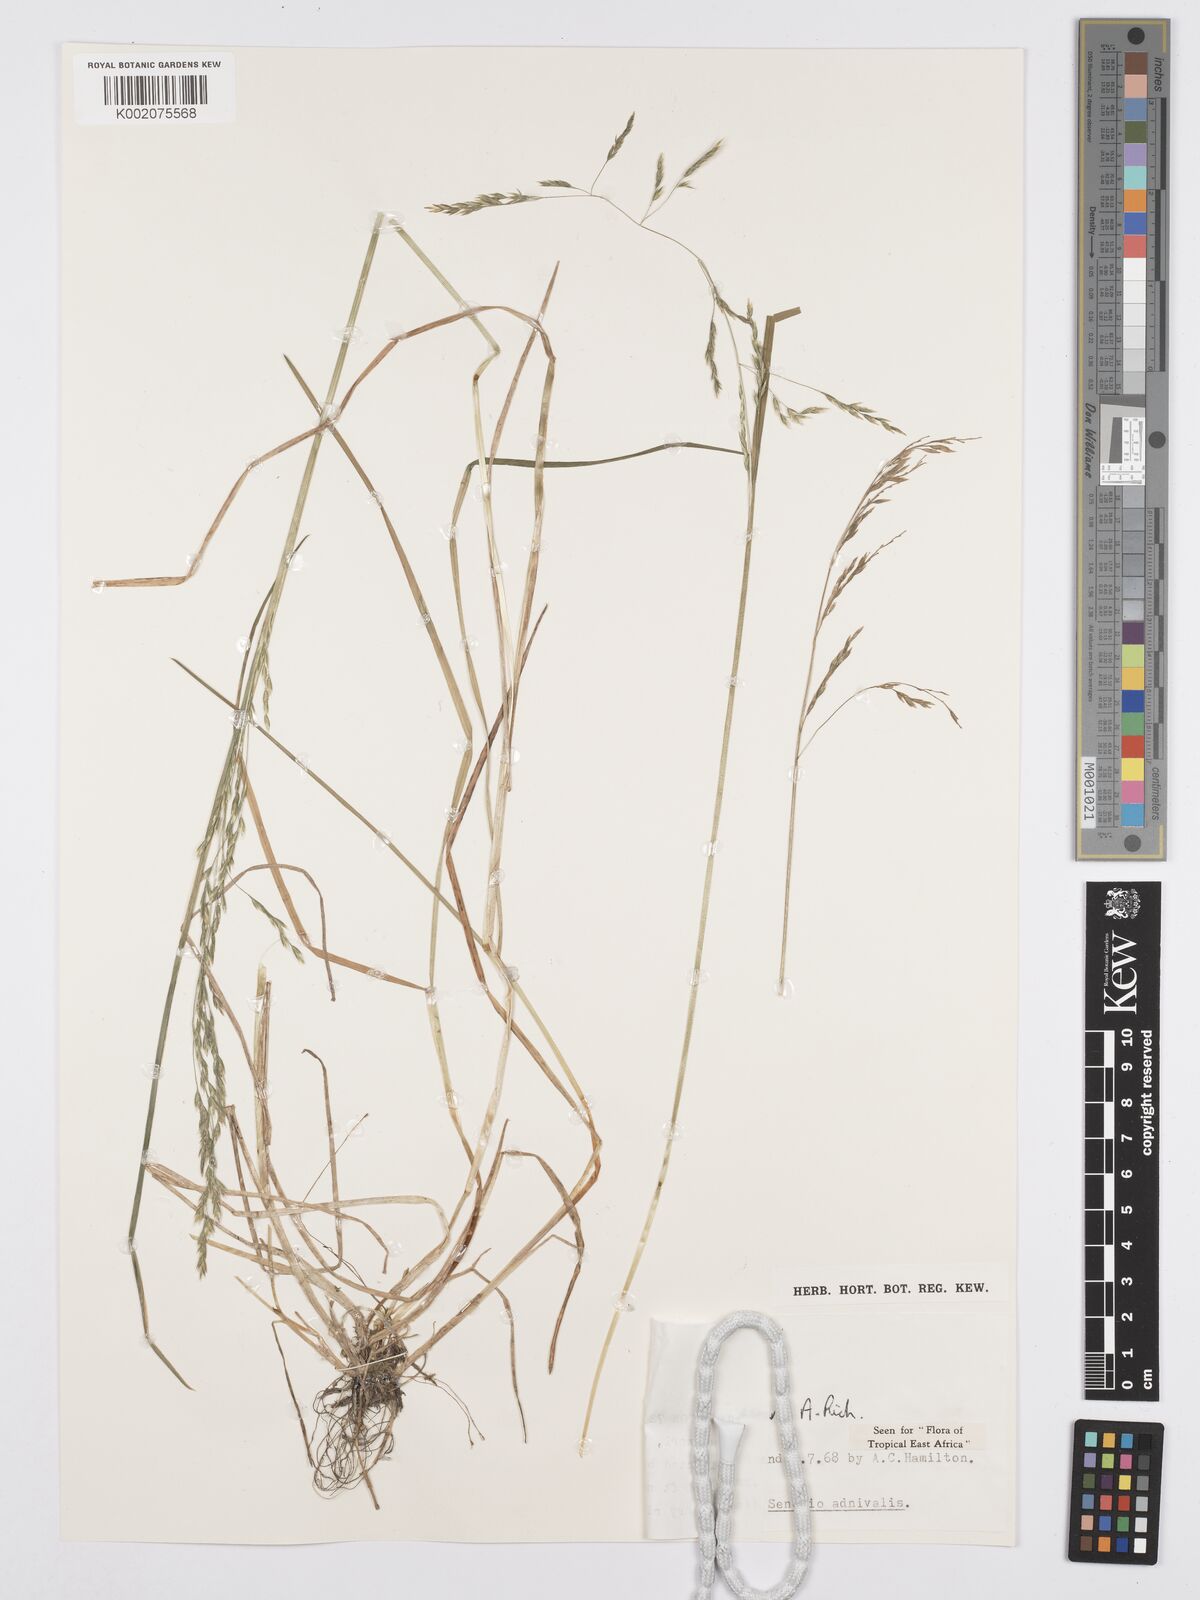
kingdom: Plantae
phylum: Tracheophyta
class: Liliopsida
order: Poales
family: Poaceae
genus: Poa
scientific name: Poa schimperiana
